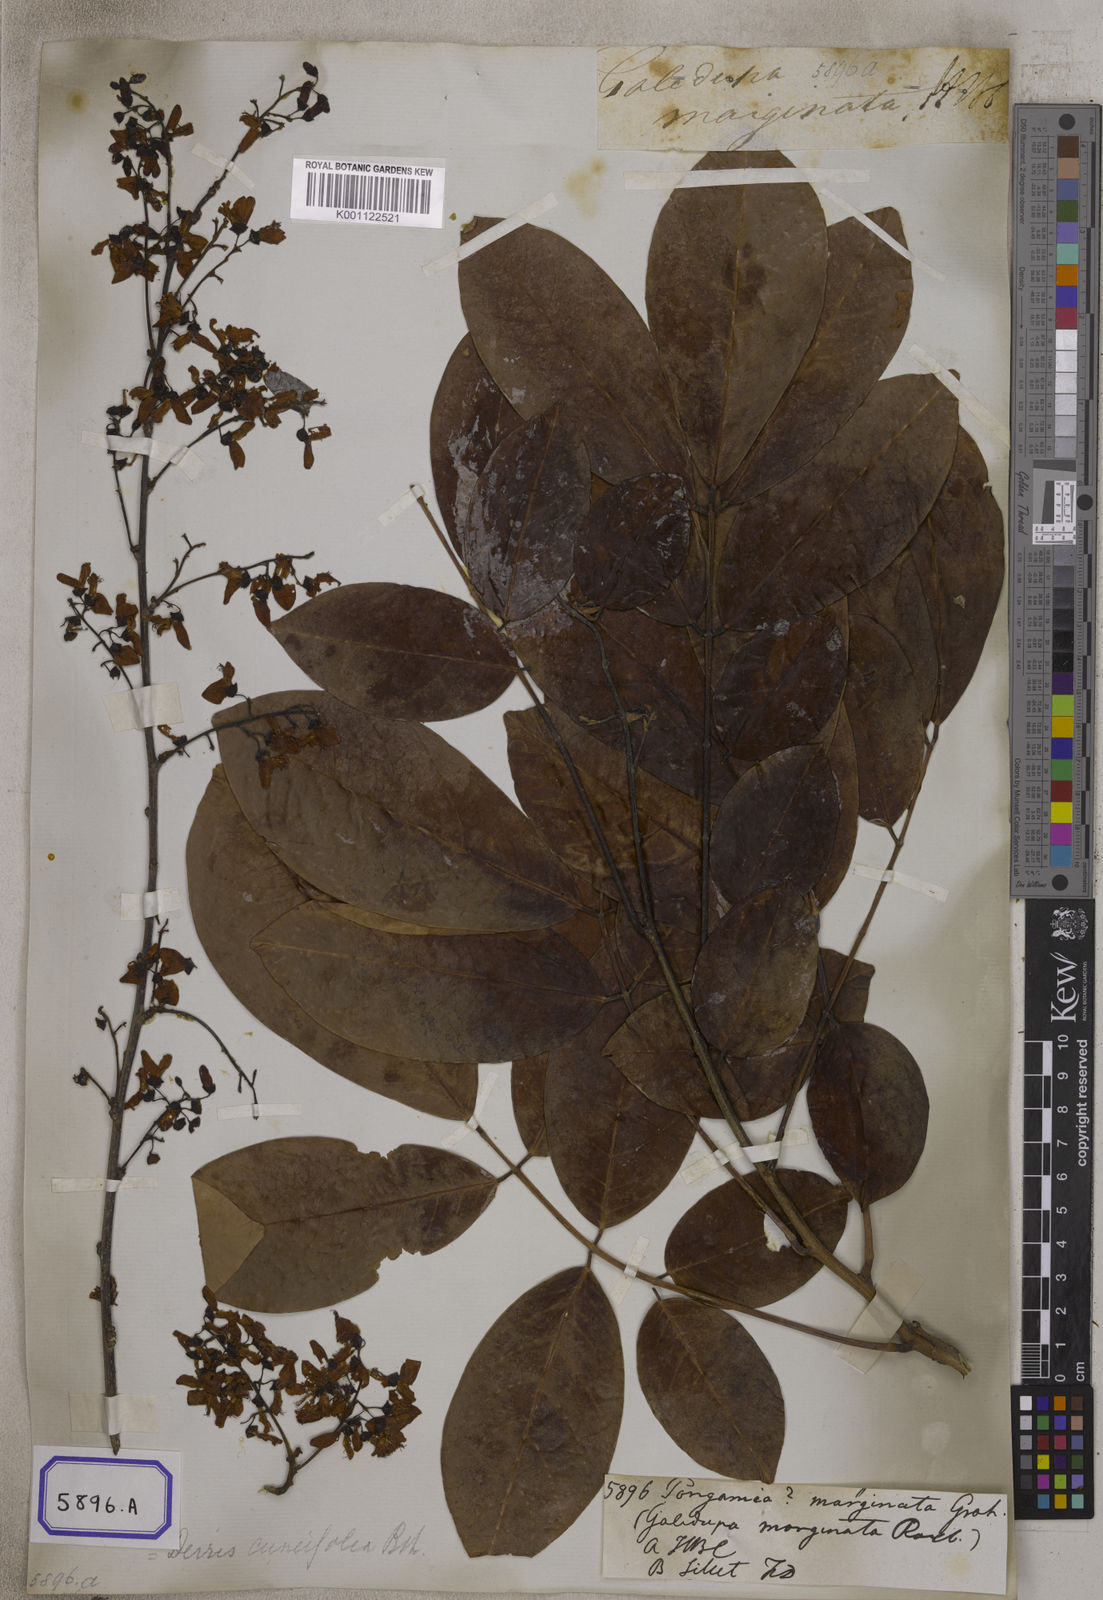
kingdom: Plantae
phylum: Tracheophyta
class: Magnoliopsida
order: Fabales
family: Fabaceae
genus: Pongamia
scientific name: Pongamia
